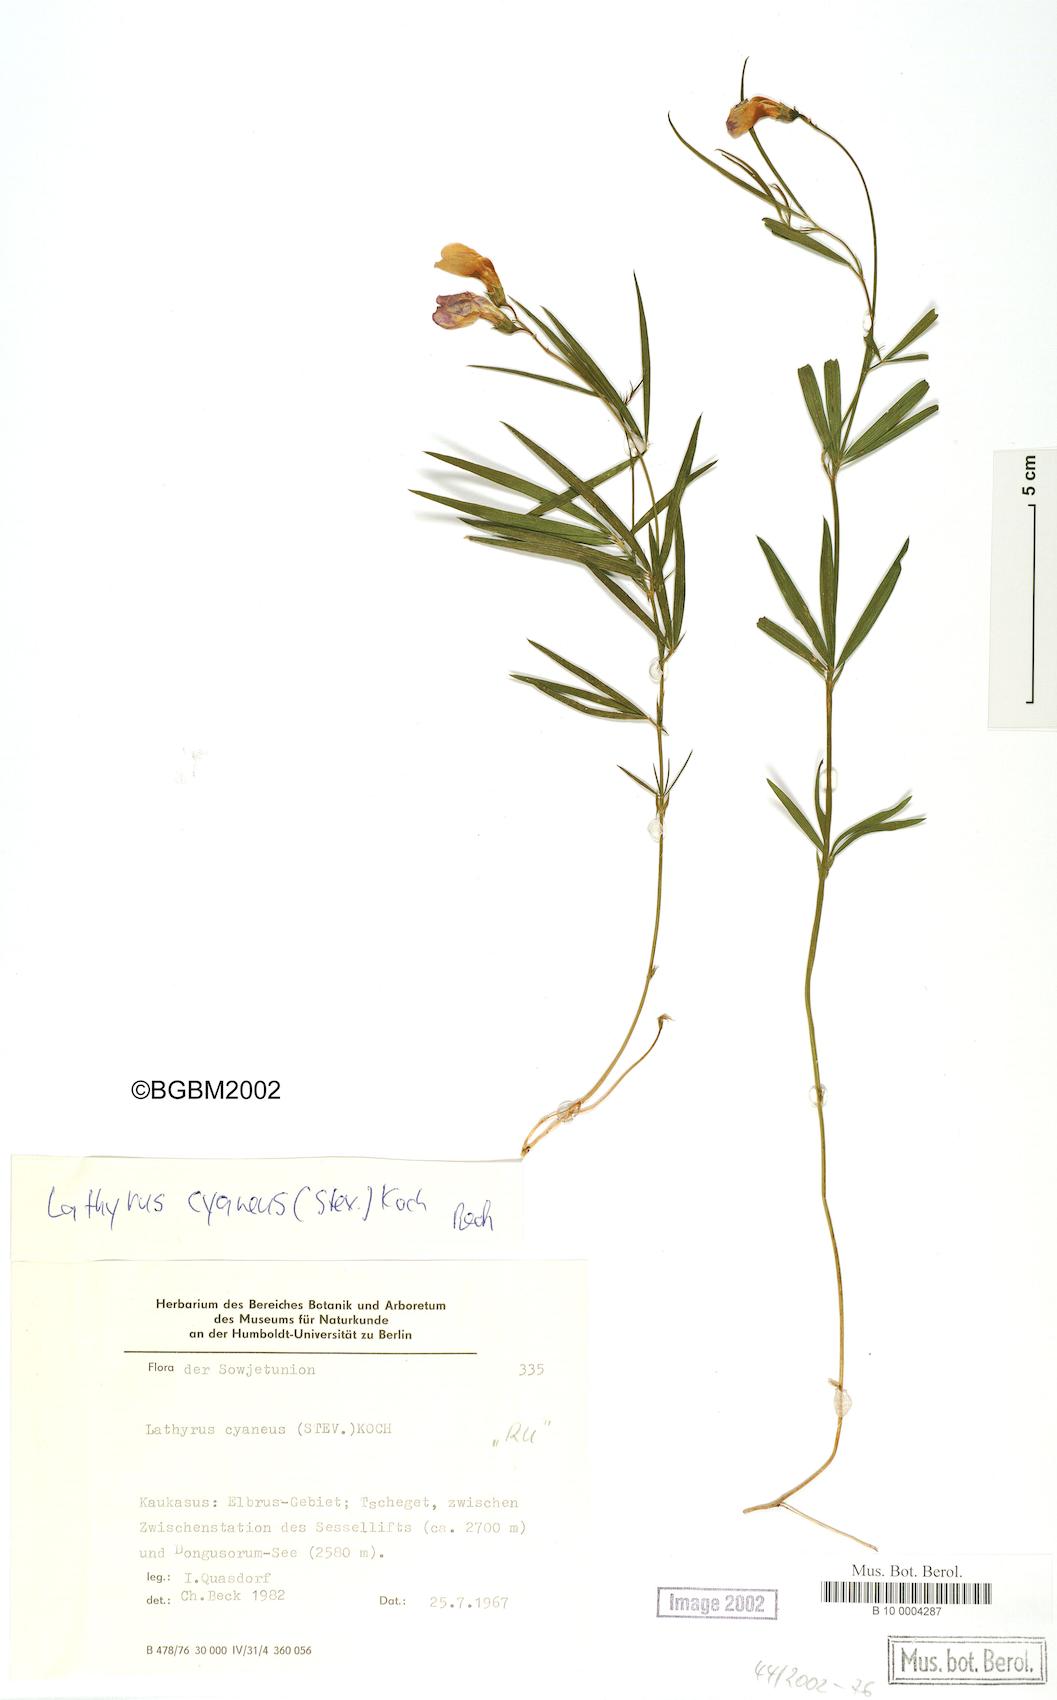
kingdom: Plantae
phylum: Tracheophyta
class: Magnoliopsida
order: Fabales
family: Fabaceae
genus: Lathyrus
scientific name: Lathyrus cyaneus
